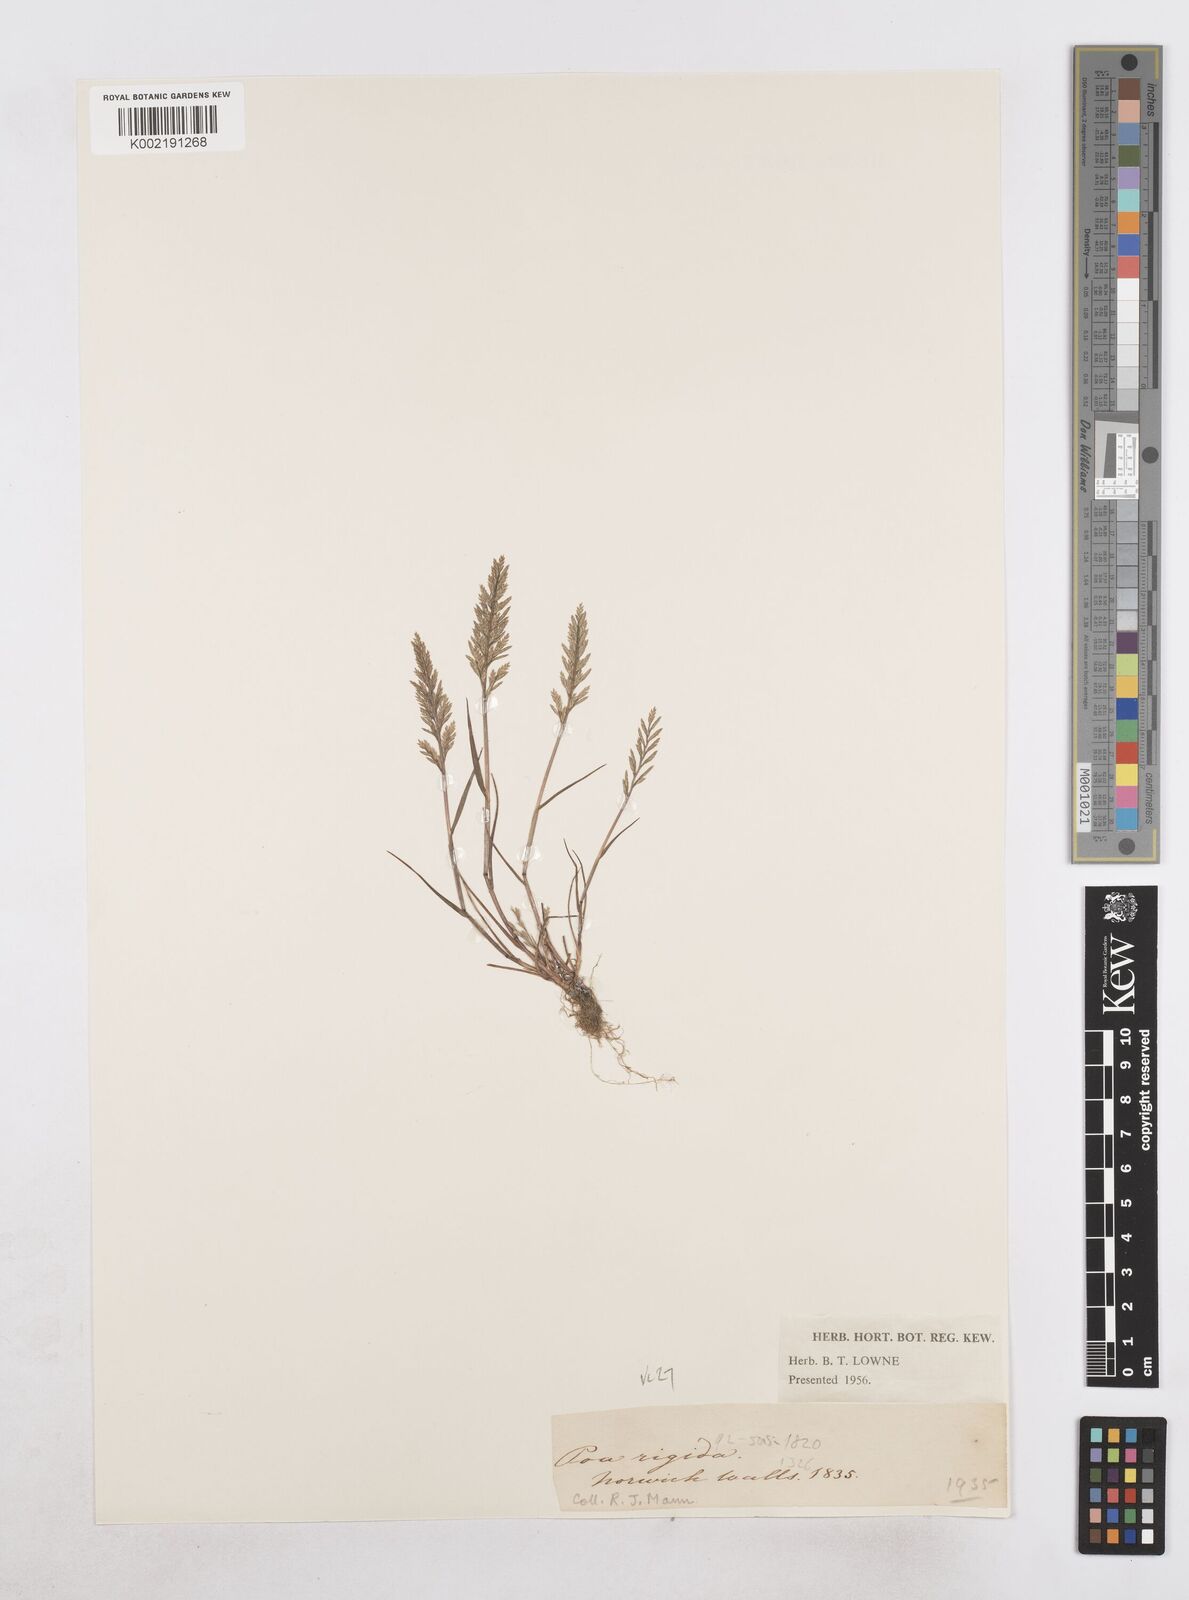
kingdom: Plantae
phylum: Tracheophyta
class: Liliopsida
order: Poales
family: Poaceae
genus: Catapodium
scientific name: Catapodium rigidum
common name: Fern-grass
